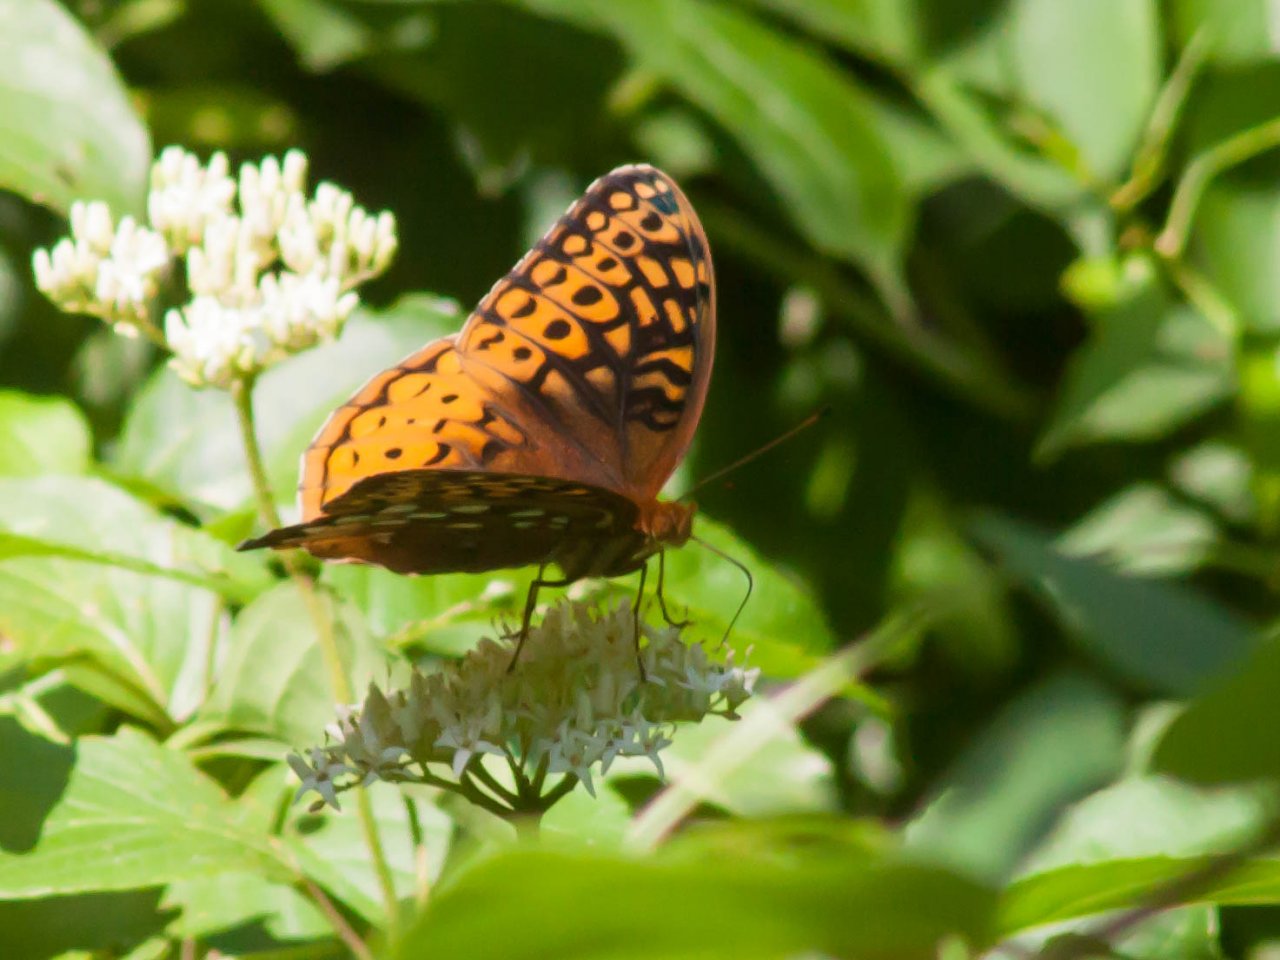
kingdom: Animalia
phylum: Arthropoda
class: Insecta
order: Lepidoptera
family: Nymphalidae
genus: Speyeria
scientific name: Speyeria cybele
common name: Great Spangled Fritillary
